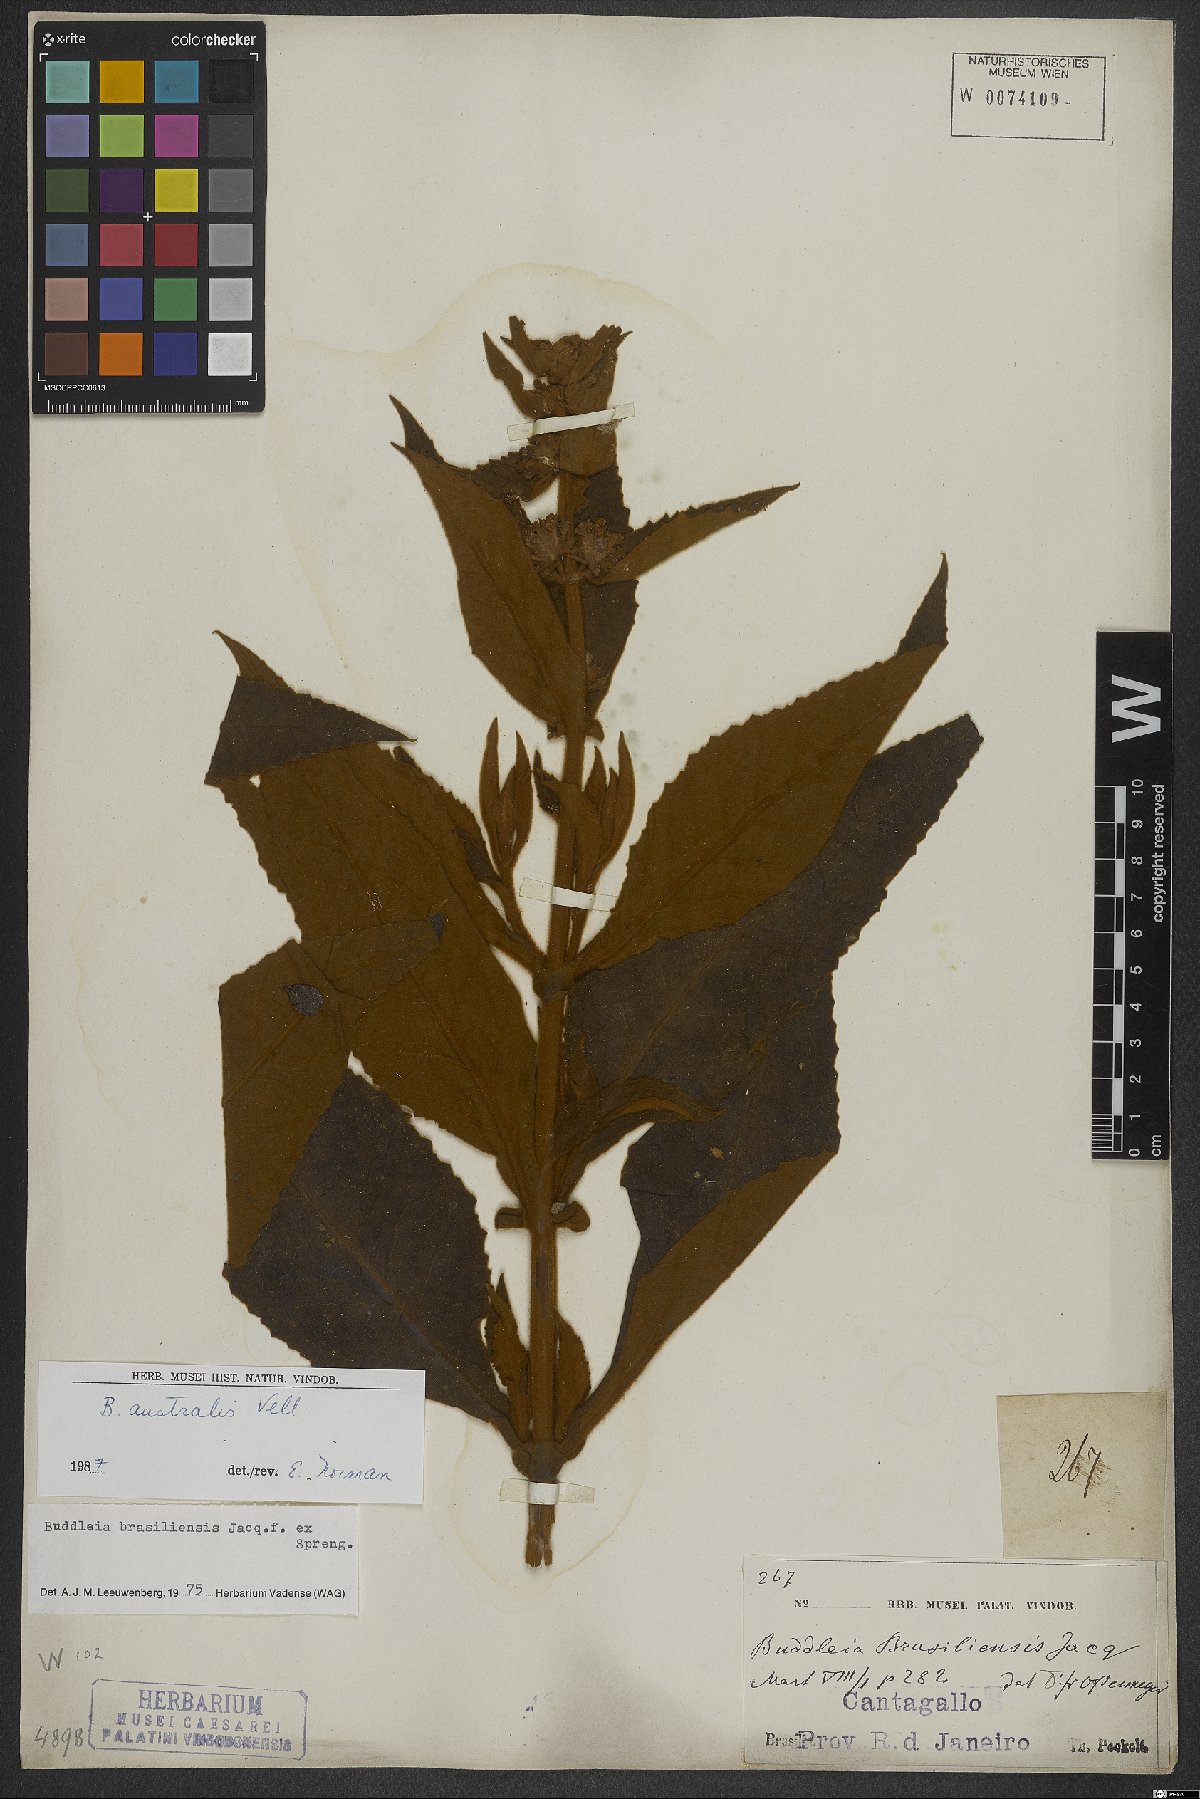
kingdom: Plantae
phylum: Tracheophyta
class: Magnoliopsida
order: Lamiales
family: Scrophulariaceae
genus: Buddleja
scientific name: Buddleja stachyoides
